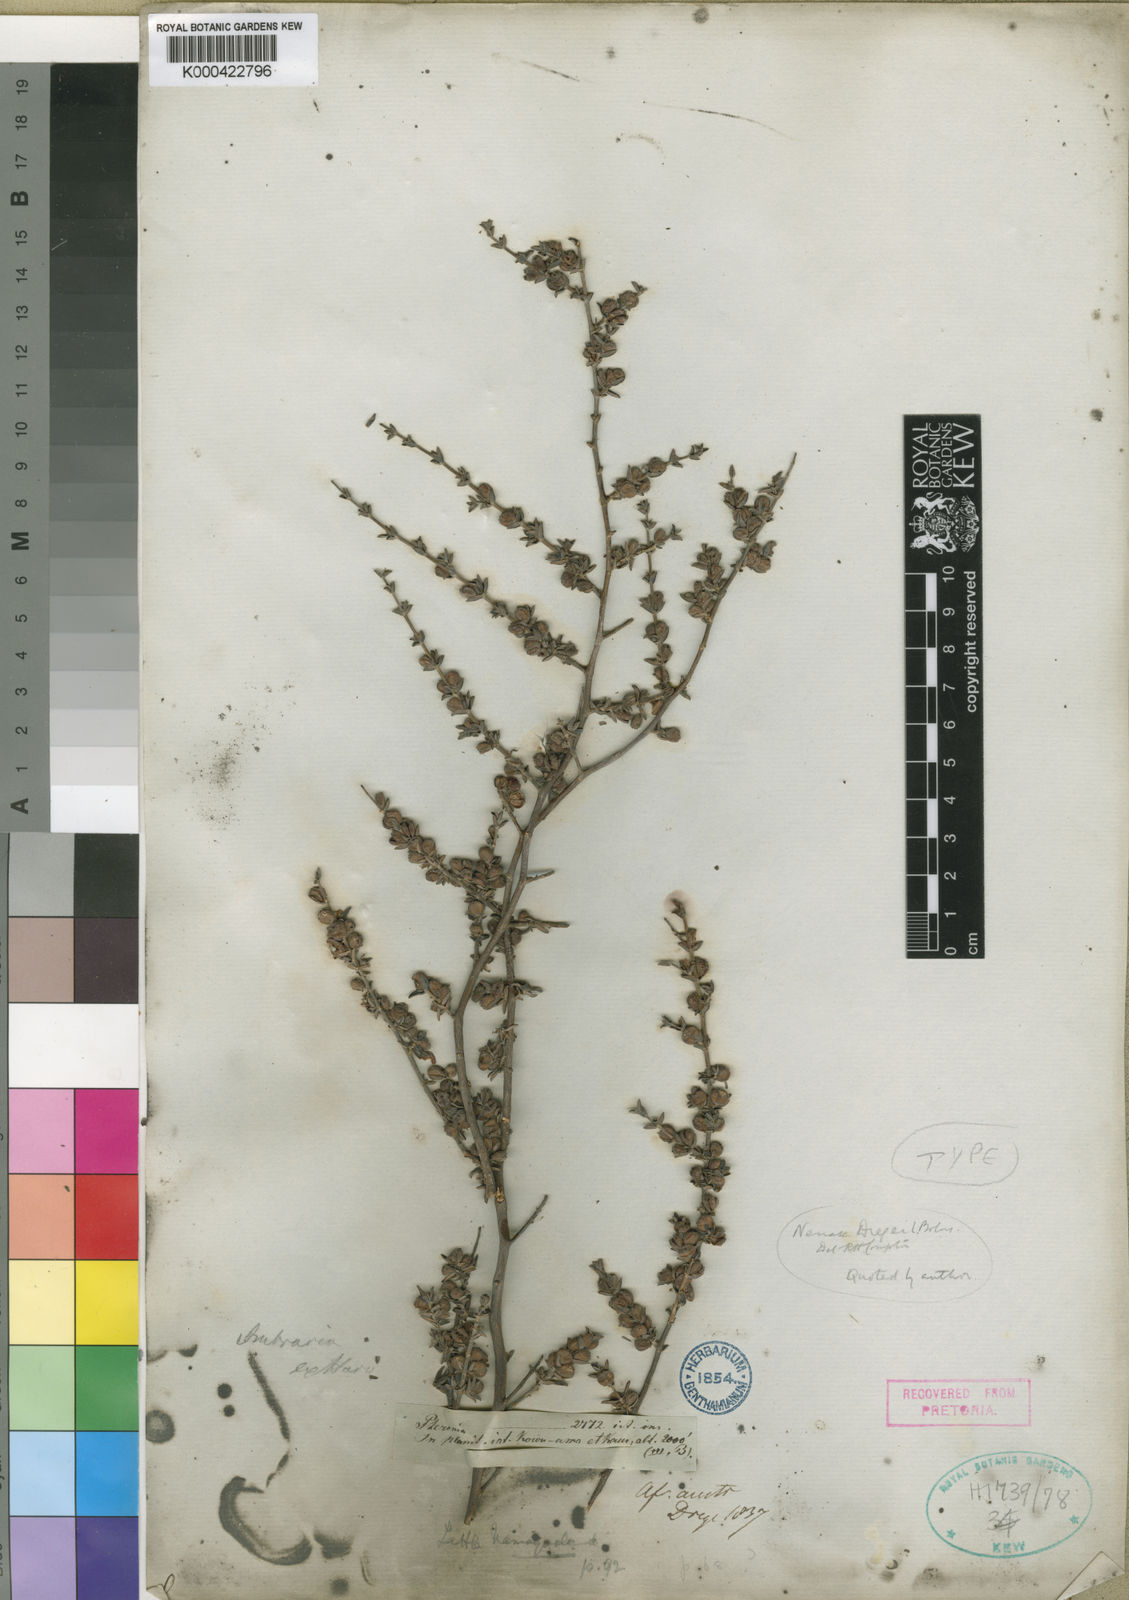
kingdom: Plantae
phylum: Tracheophyta
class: Magnoliopsida
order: Gentianales
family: Rubiaceae
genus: Nenax
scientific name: Nenax cinerea
